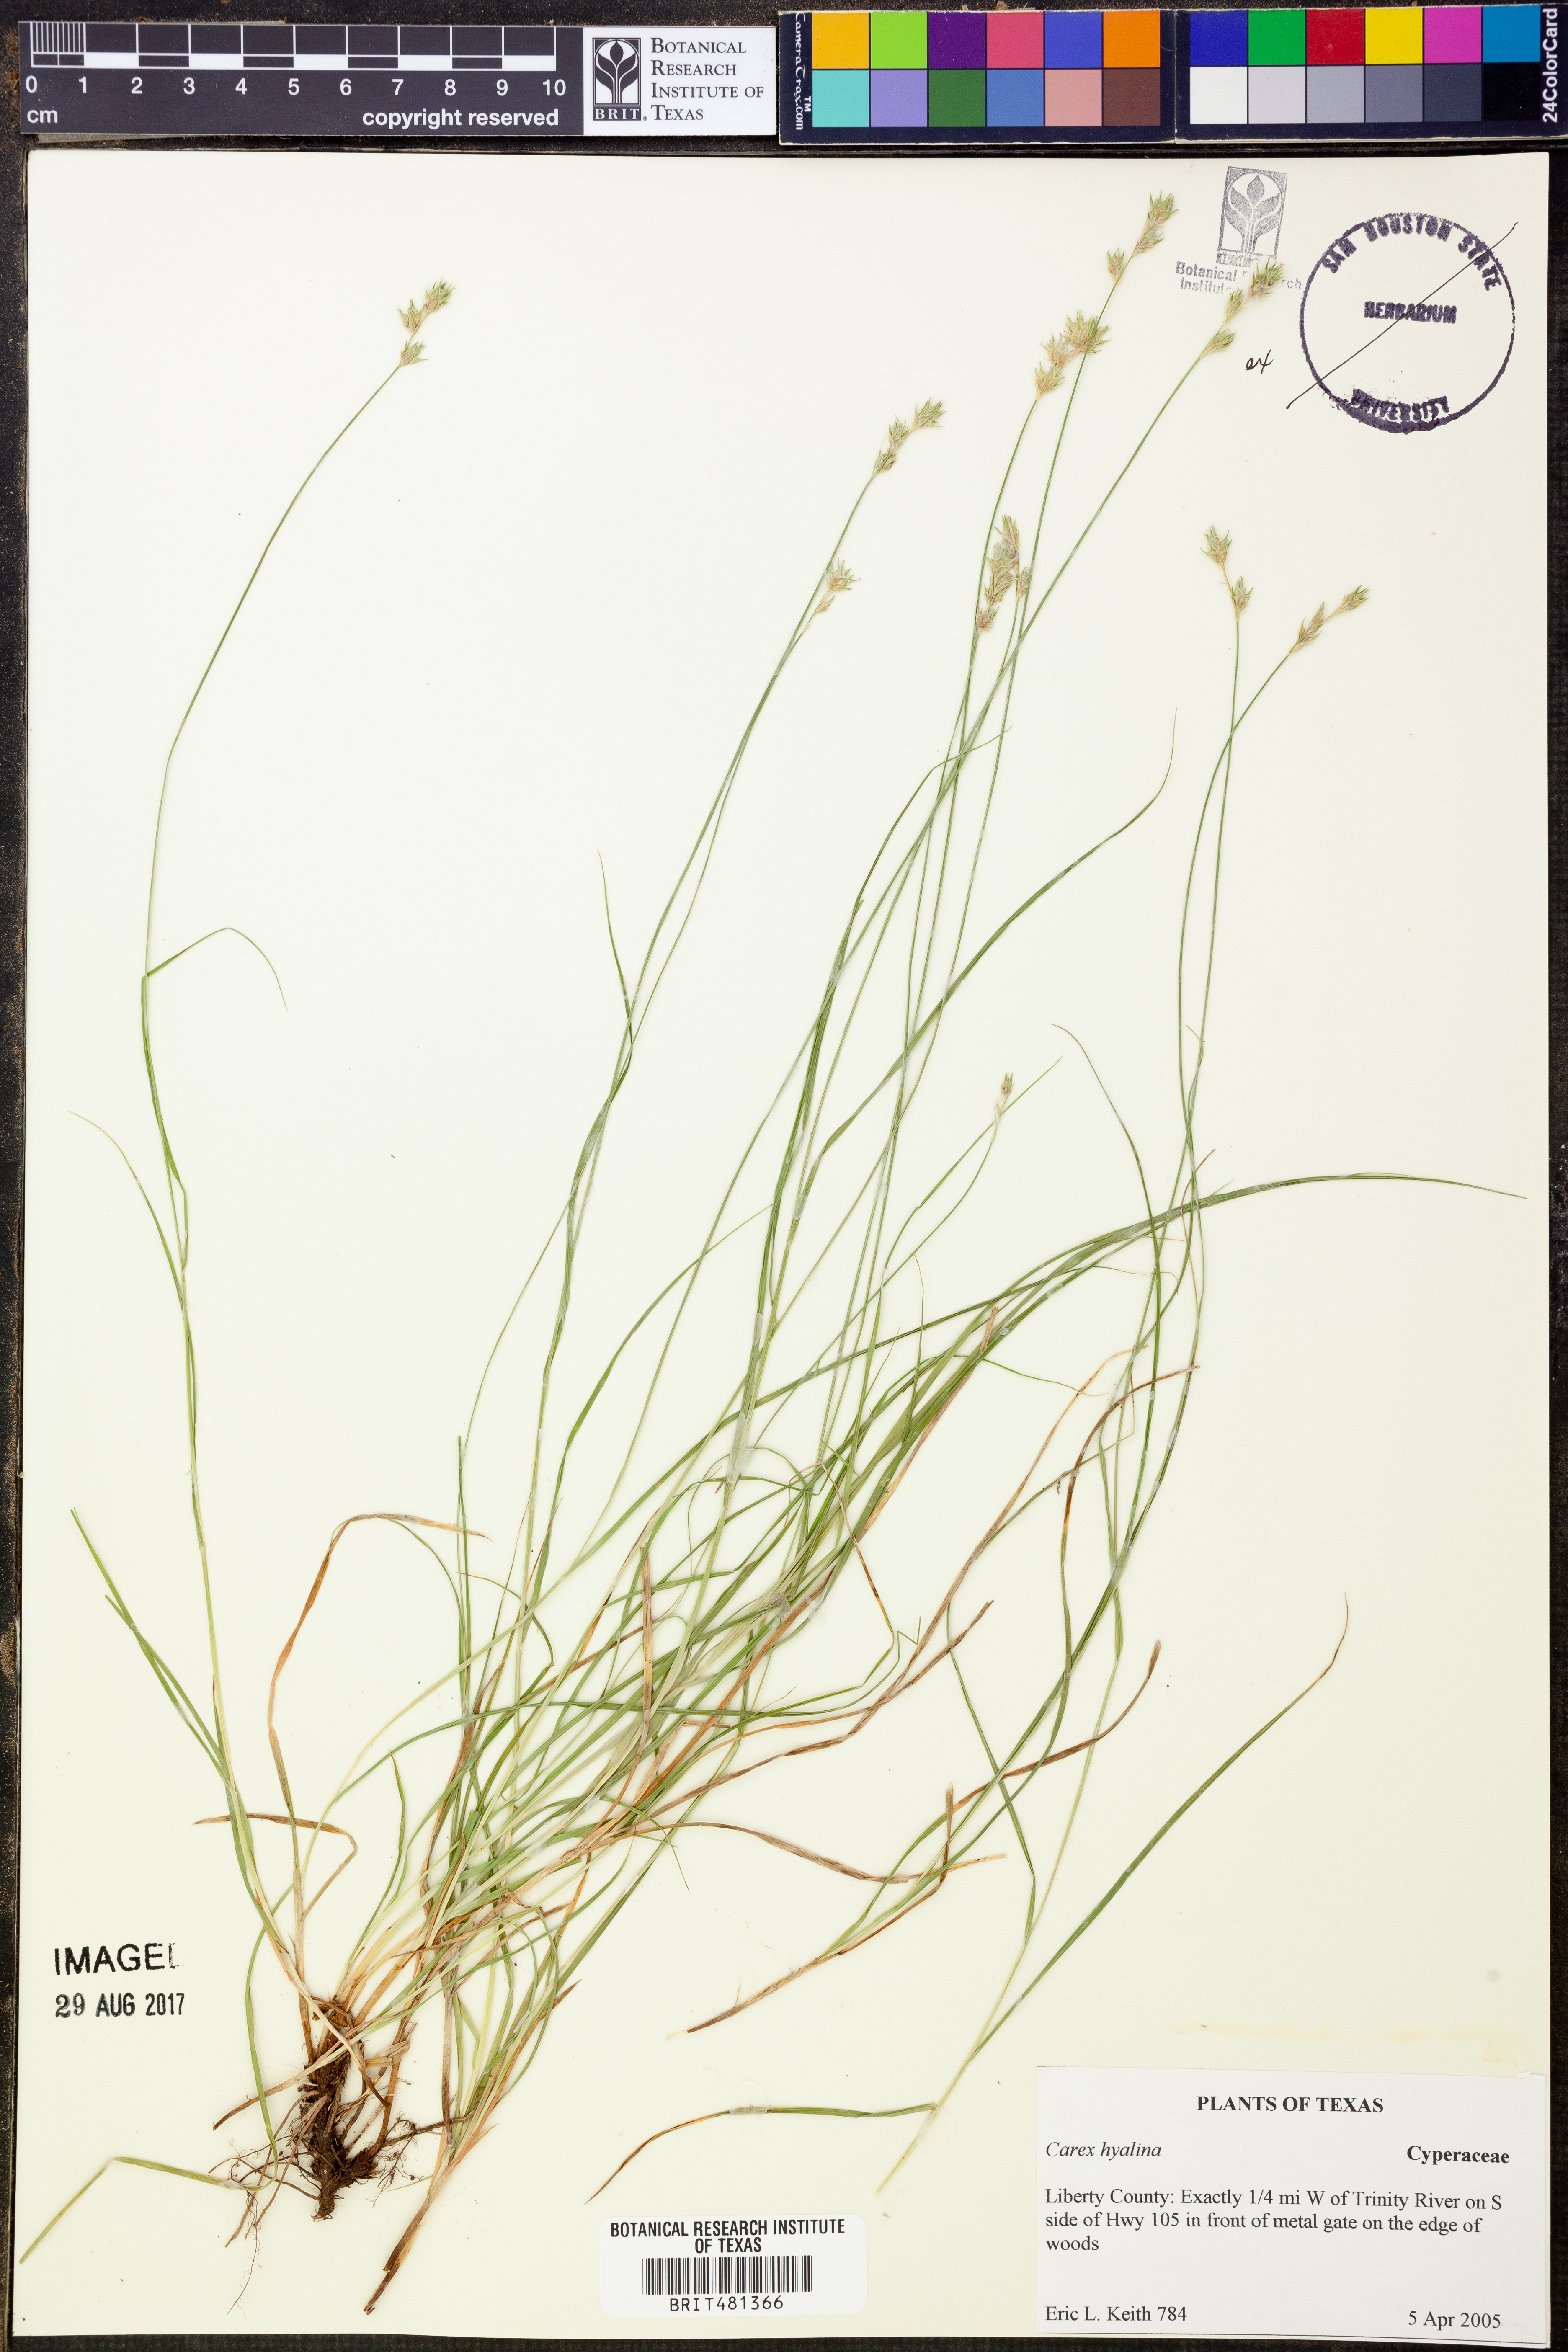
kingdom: Plantae
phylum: Tracheophyta
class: Liliopsida
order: Poales
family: Cyperaceae
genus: Carex
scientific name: Carex hyalina
